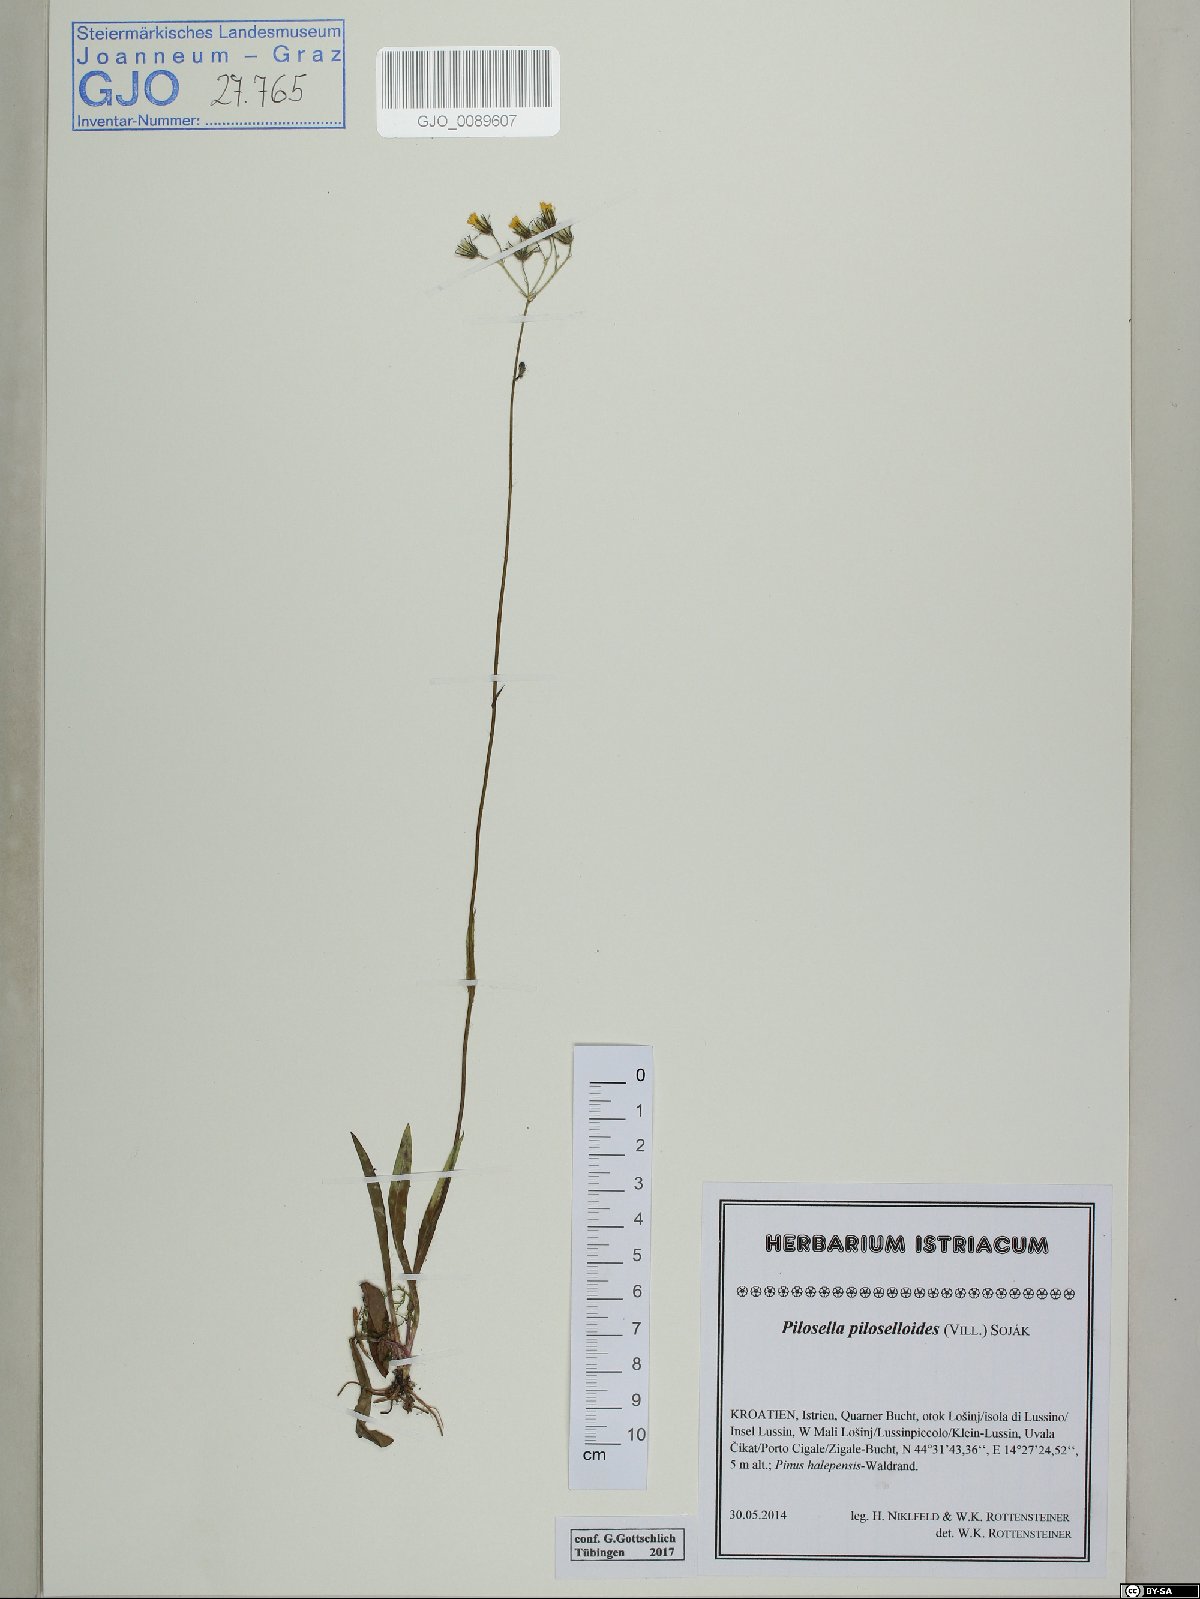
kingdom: Plantae
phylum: Tracheophyta
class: Magnoliopsida
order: Asterales
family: Asteraceae
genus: Pilosella
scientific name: Pilosella piloselloides
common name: Glaucous king-devil
